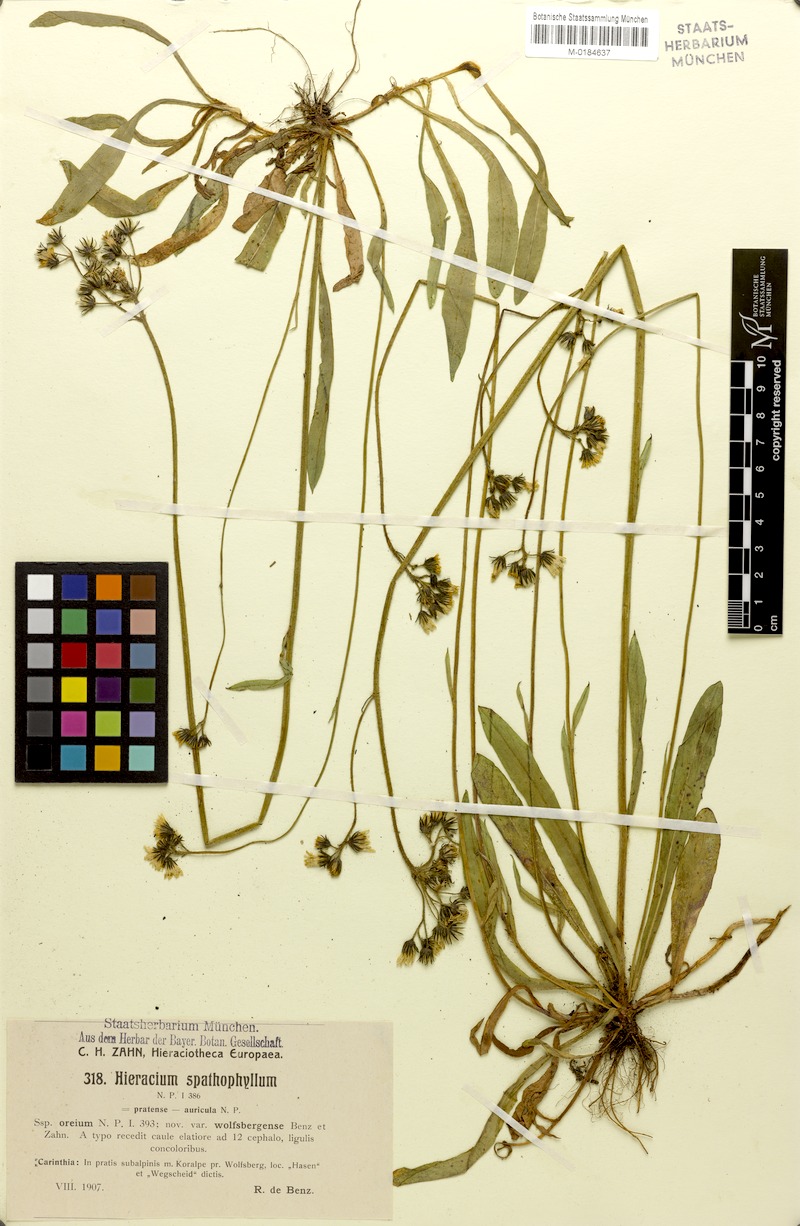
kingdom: Plantae
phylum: Tracheophyta
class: Magnoliopsida
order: Asterales
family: Asteraceae
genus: Pilosella
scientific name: Pilosella floribunda
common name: Glaucous hawkweed
